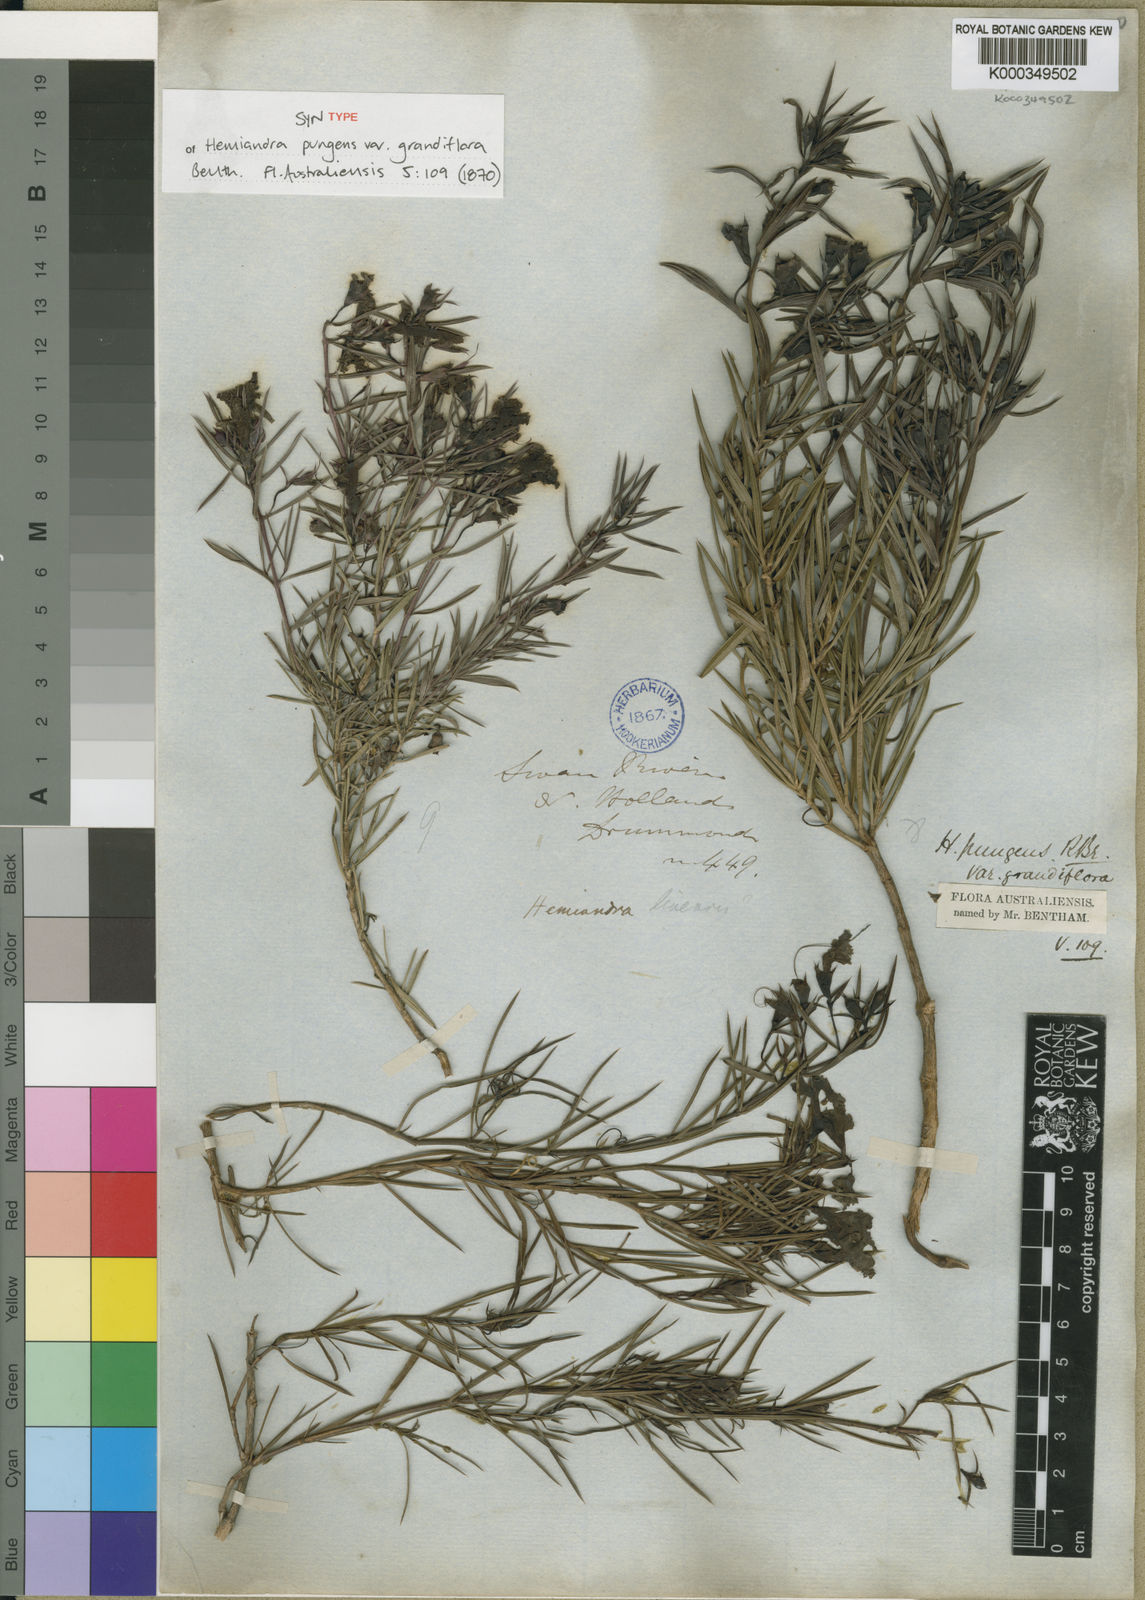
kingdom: Plantae
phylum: Tracheophyta
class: Magnoliopsida
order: Lamiales
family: Lamiaceae
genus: Hemiandra
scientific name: Hemiandra pungens
